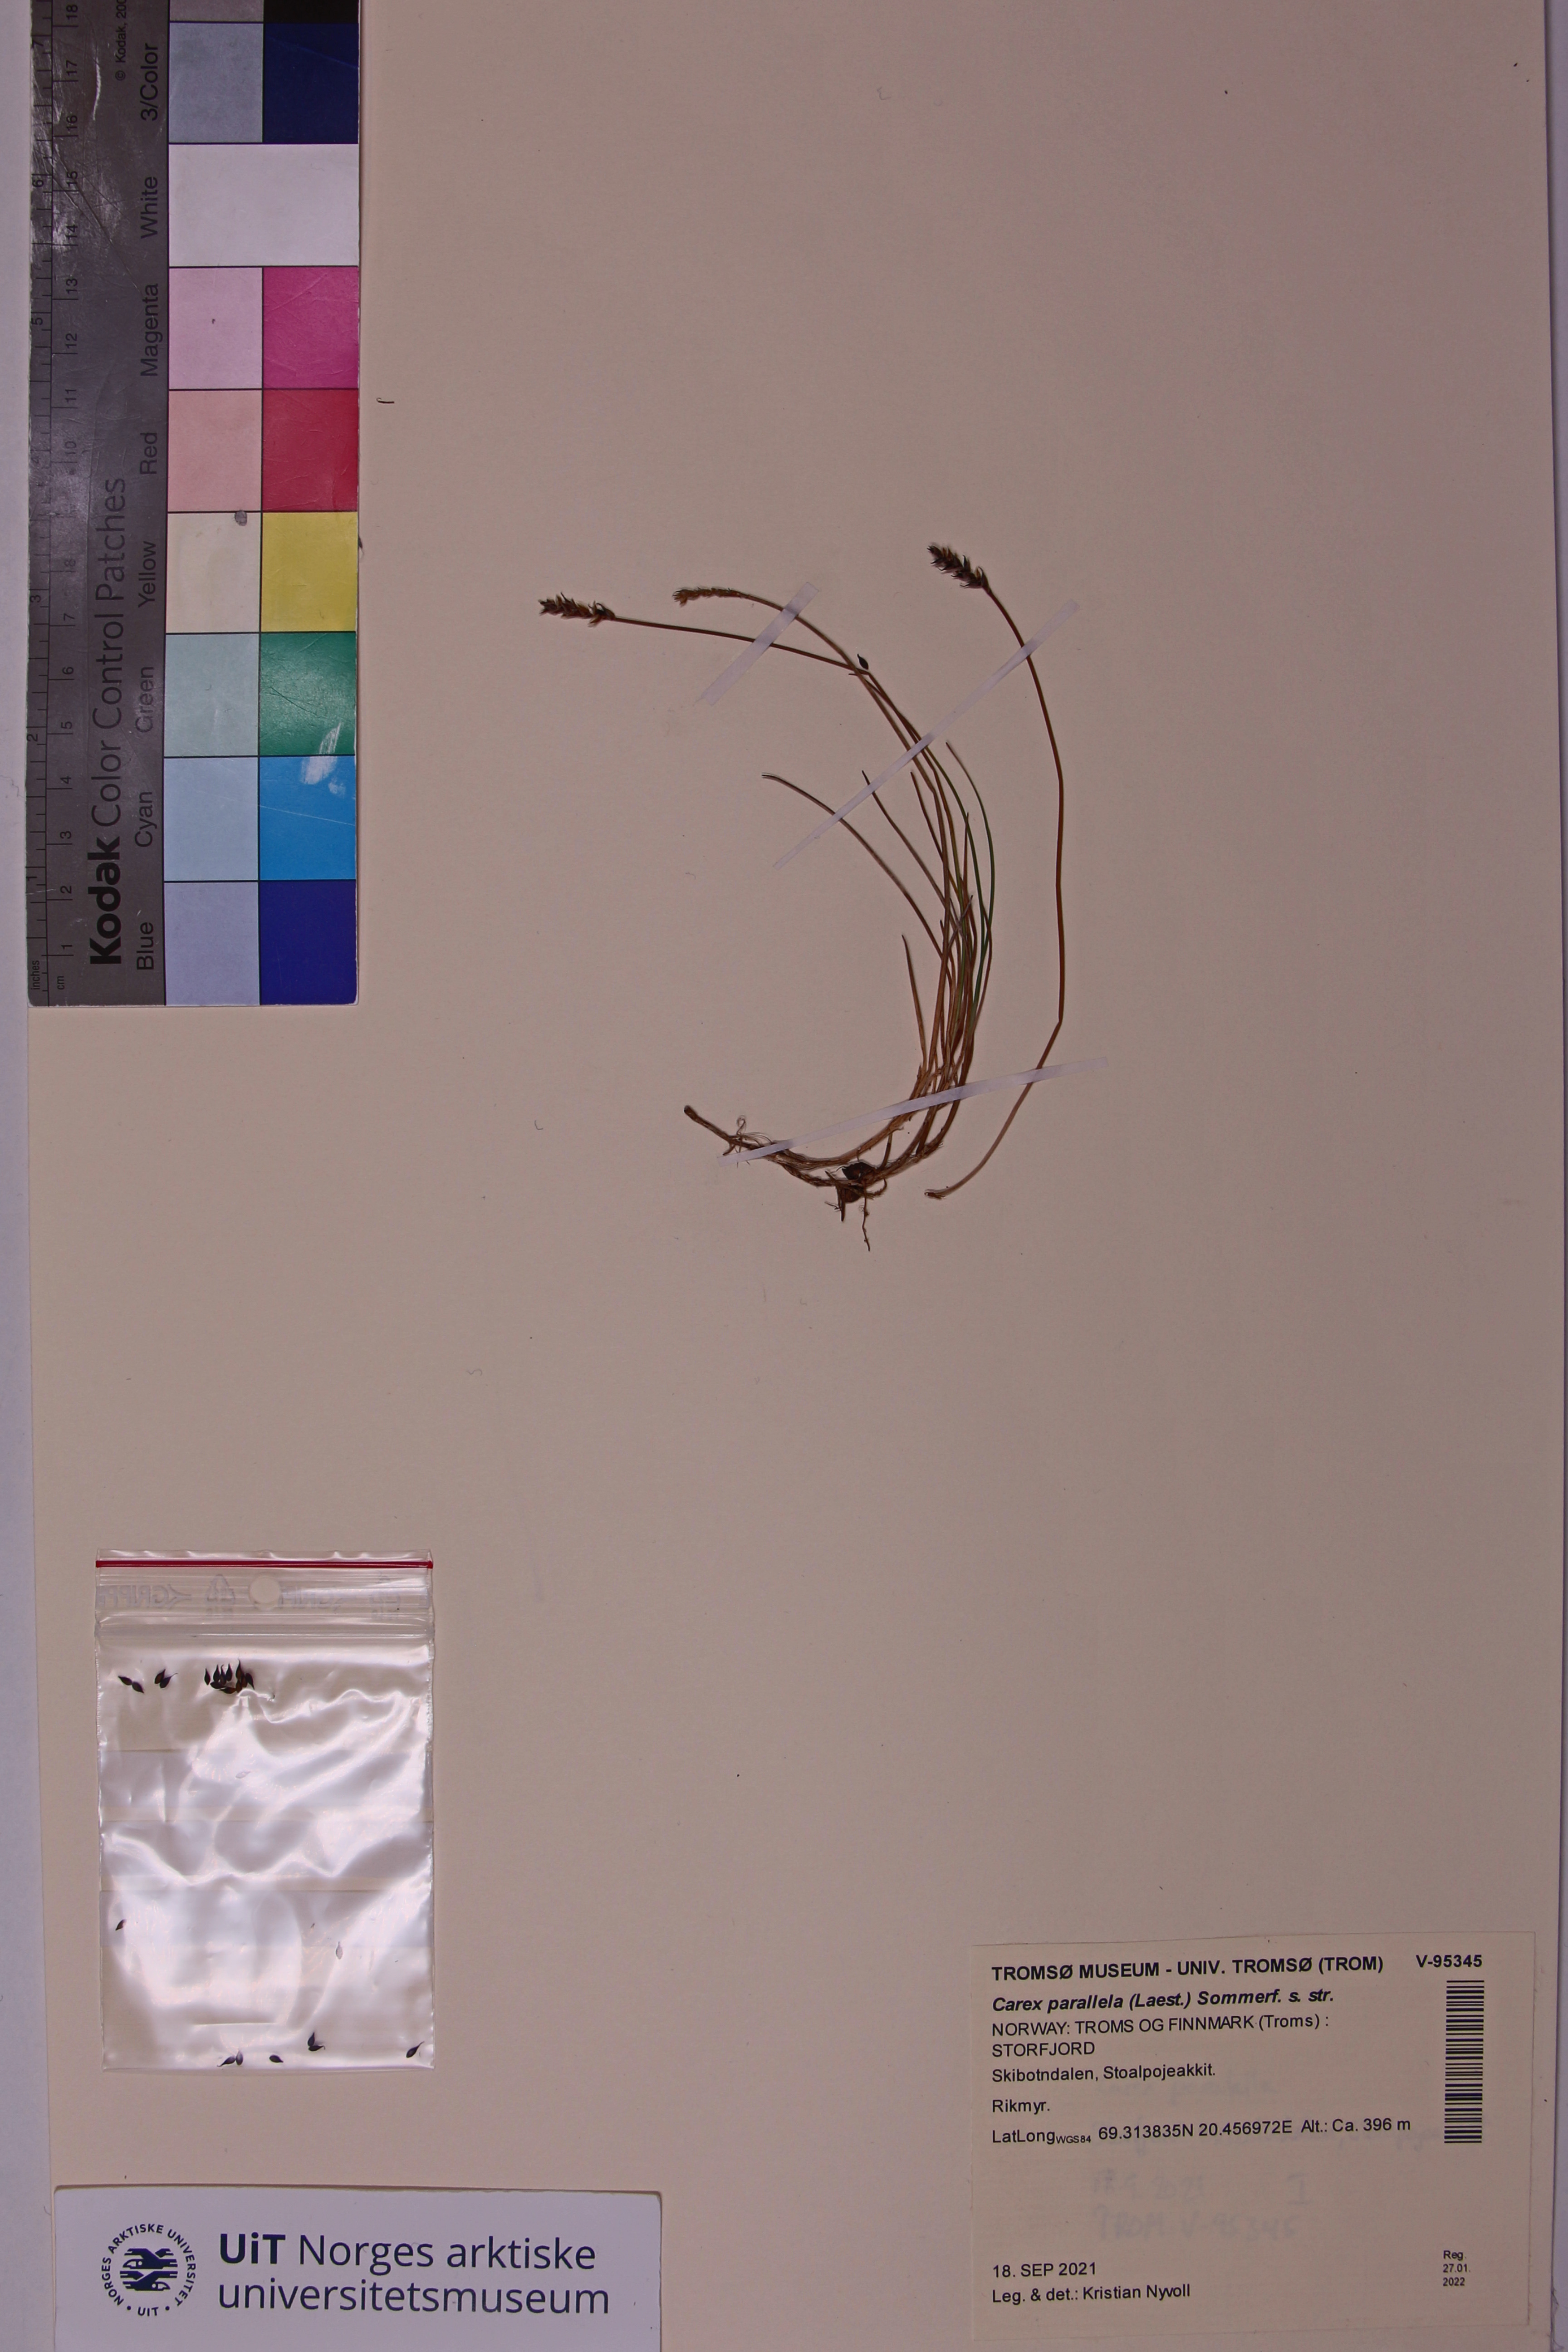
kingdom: Plantae
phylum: Tracheophyta
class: Liliopsida
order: Poales
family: Cyperaceae
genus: Carex
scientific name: Carex parallela
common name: Parallel sedge
